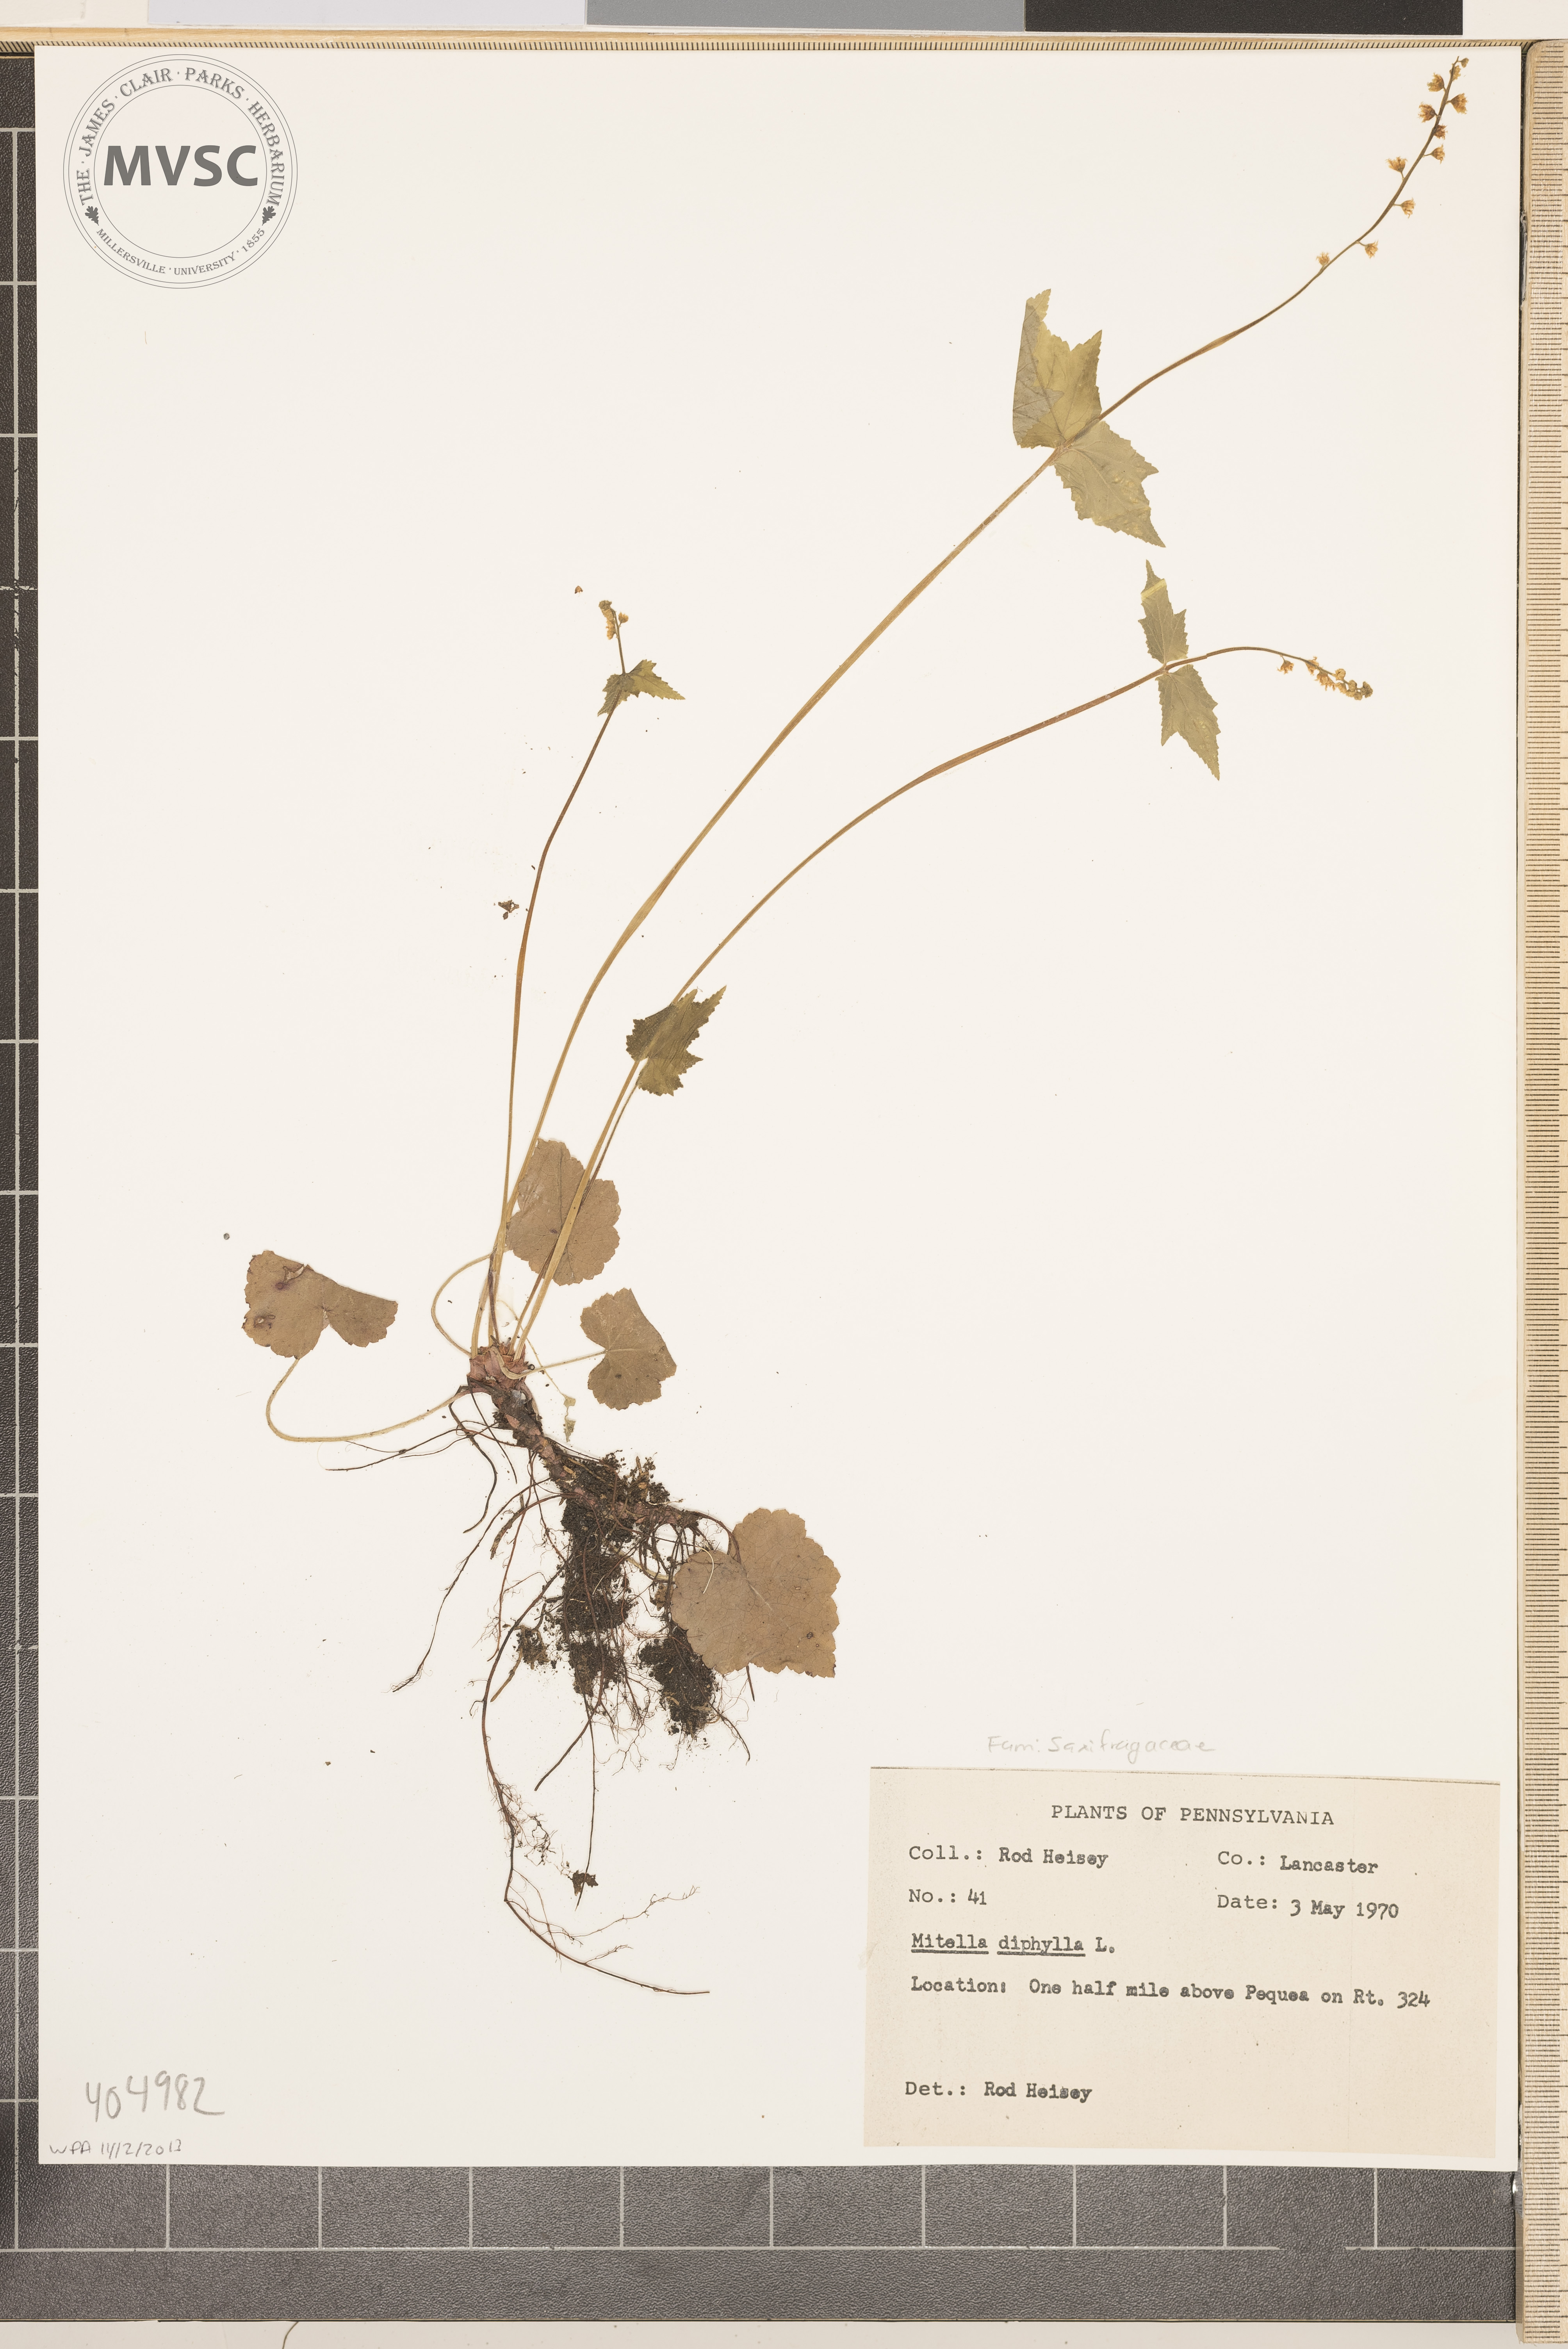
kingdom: Plantae
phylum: Tracheophyta
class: Magnoliopsida
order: Saxifragales
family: Saxifragaceae
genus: Mitella
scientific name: Mitella diphylla
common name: Coolwort
